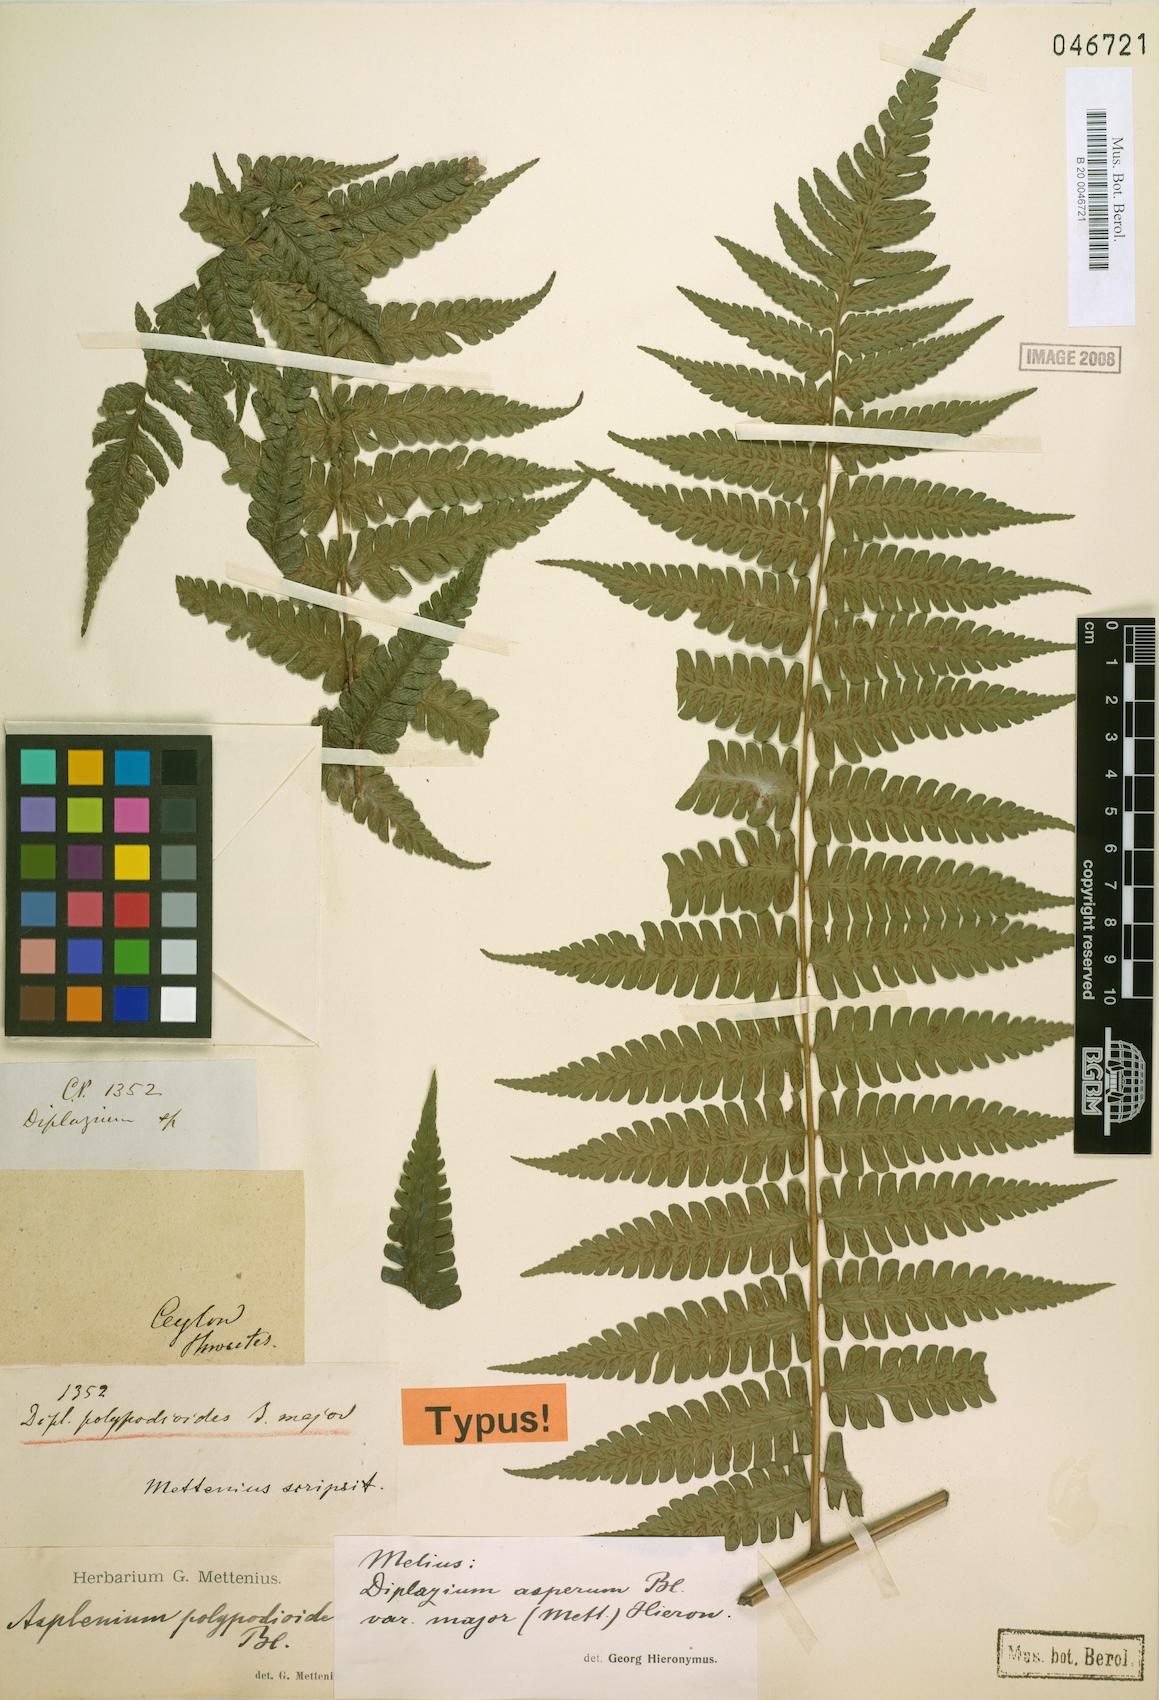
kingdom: Plantae
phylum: Tracheophyta
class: Polypodiopsida
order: Polypodiales
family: Athyriaceae
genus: Diplazium
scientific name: Diplazium polypodioides
